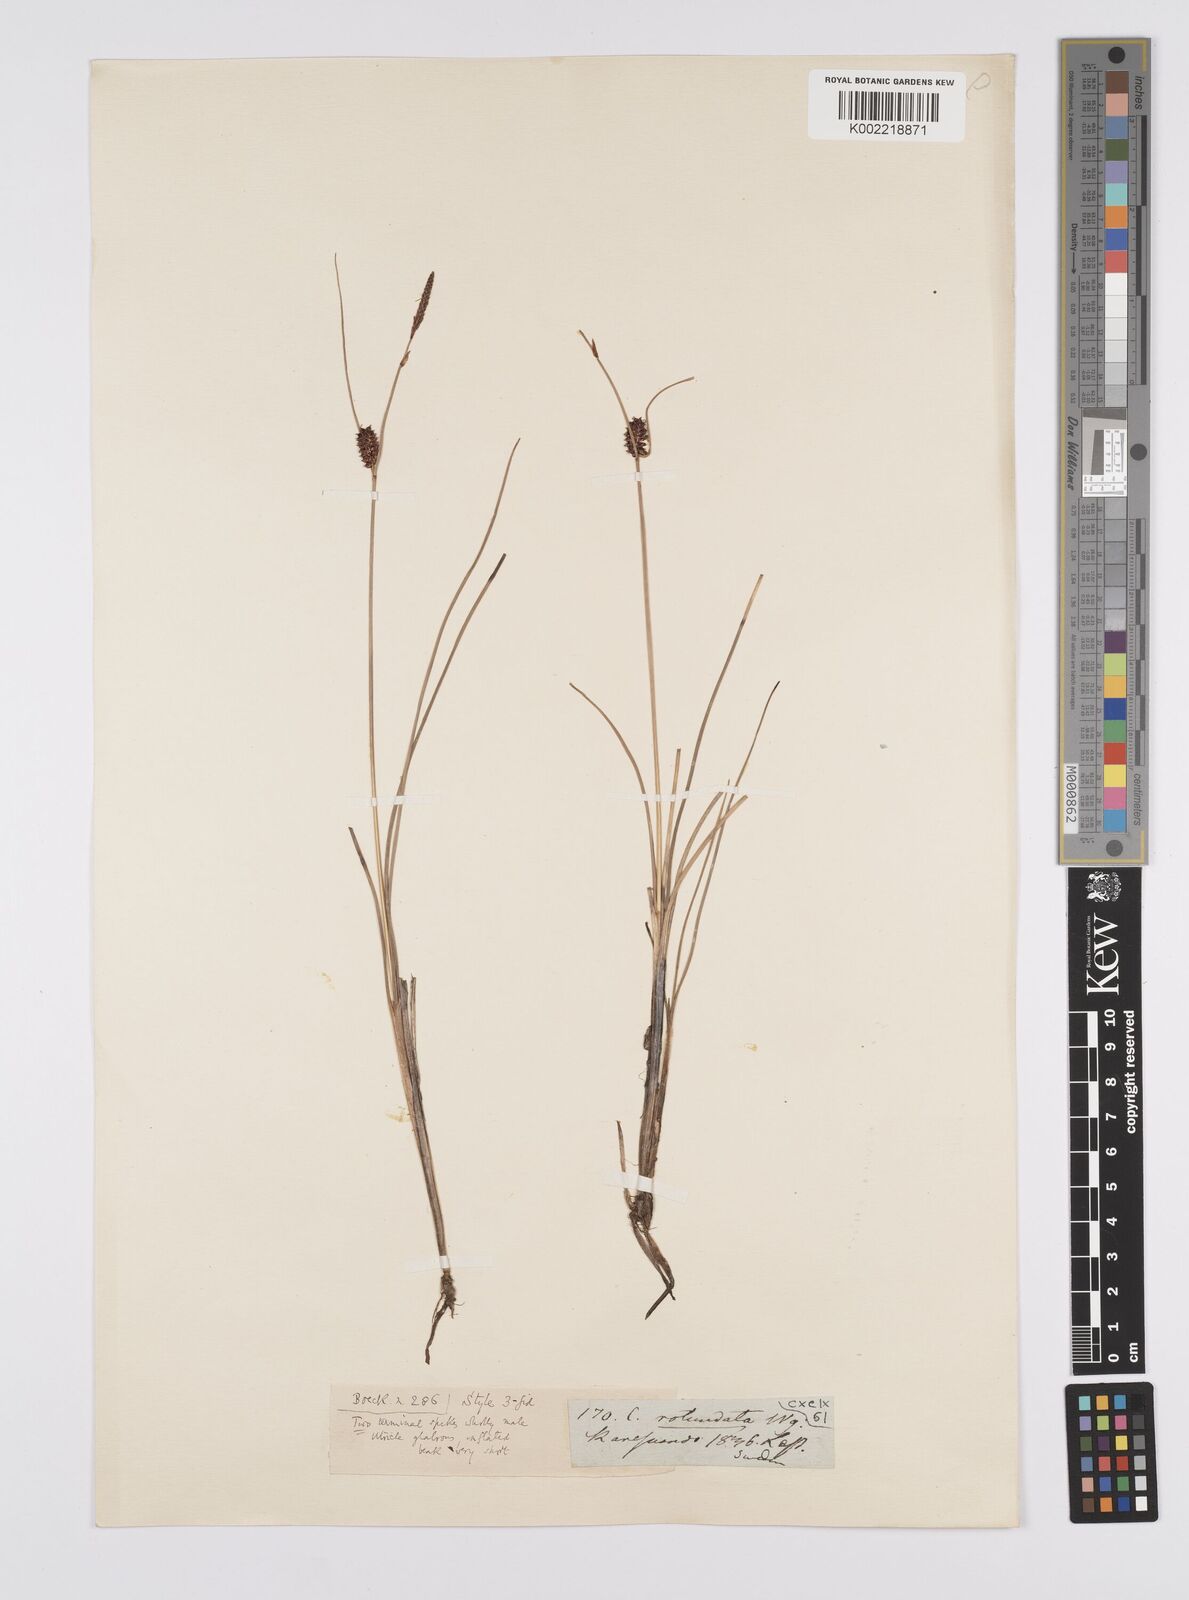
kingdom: Plantae
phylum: Tracheophyta
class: Liliopsida
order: Poales
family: Cyperaceae
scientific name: Cyperaceae
